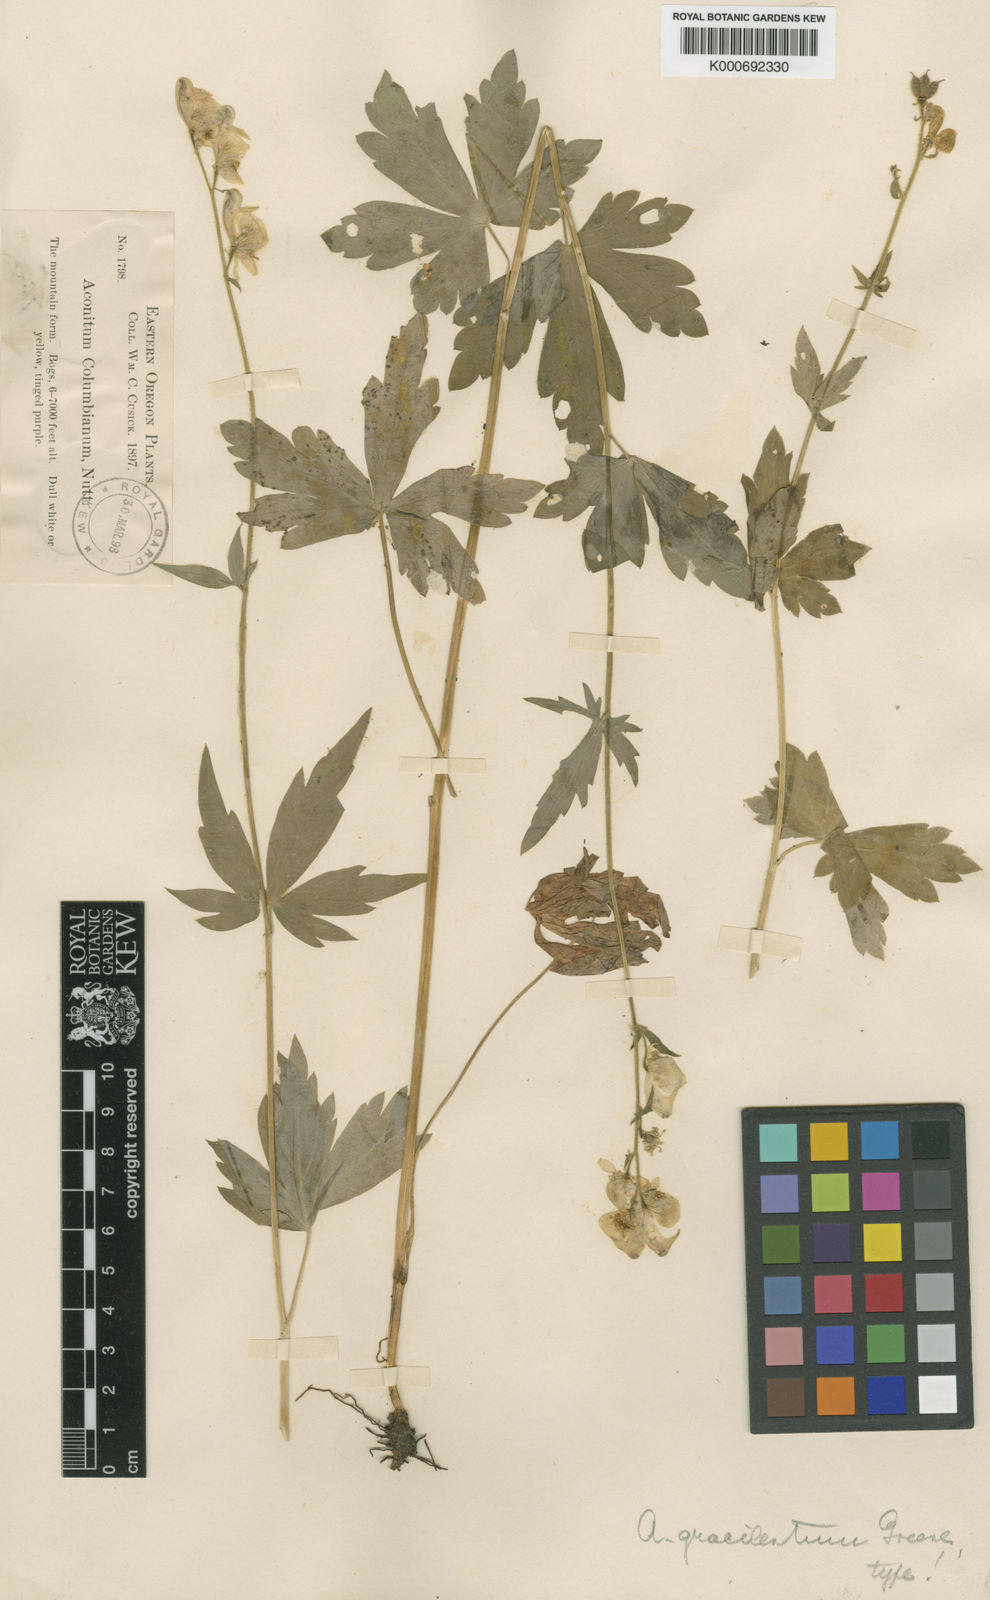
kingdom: Plantae
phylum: Tracheophyta
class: Magnoliopsida
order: Ranunculales
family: Ranunculaceae
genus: Aconitum
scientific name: Aconitum columbianum
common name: Columbia aconite
